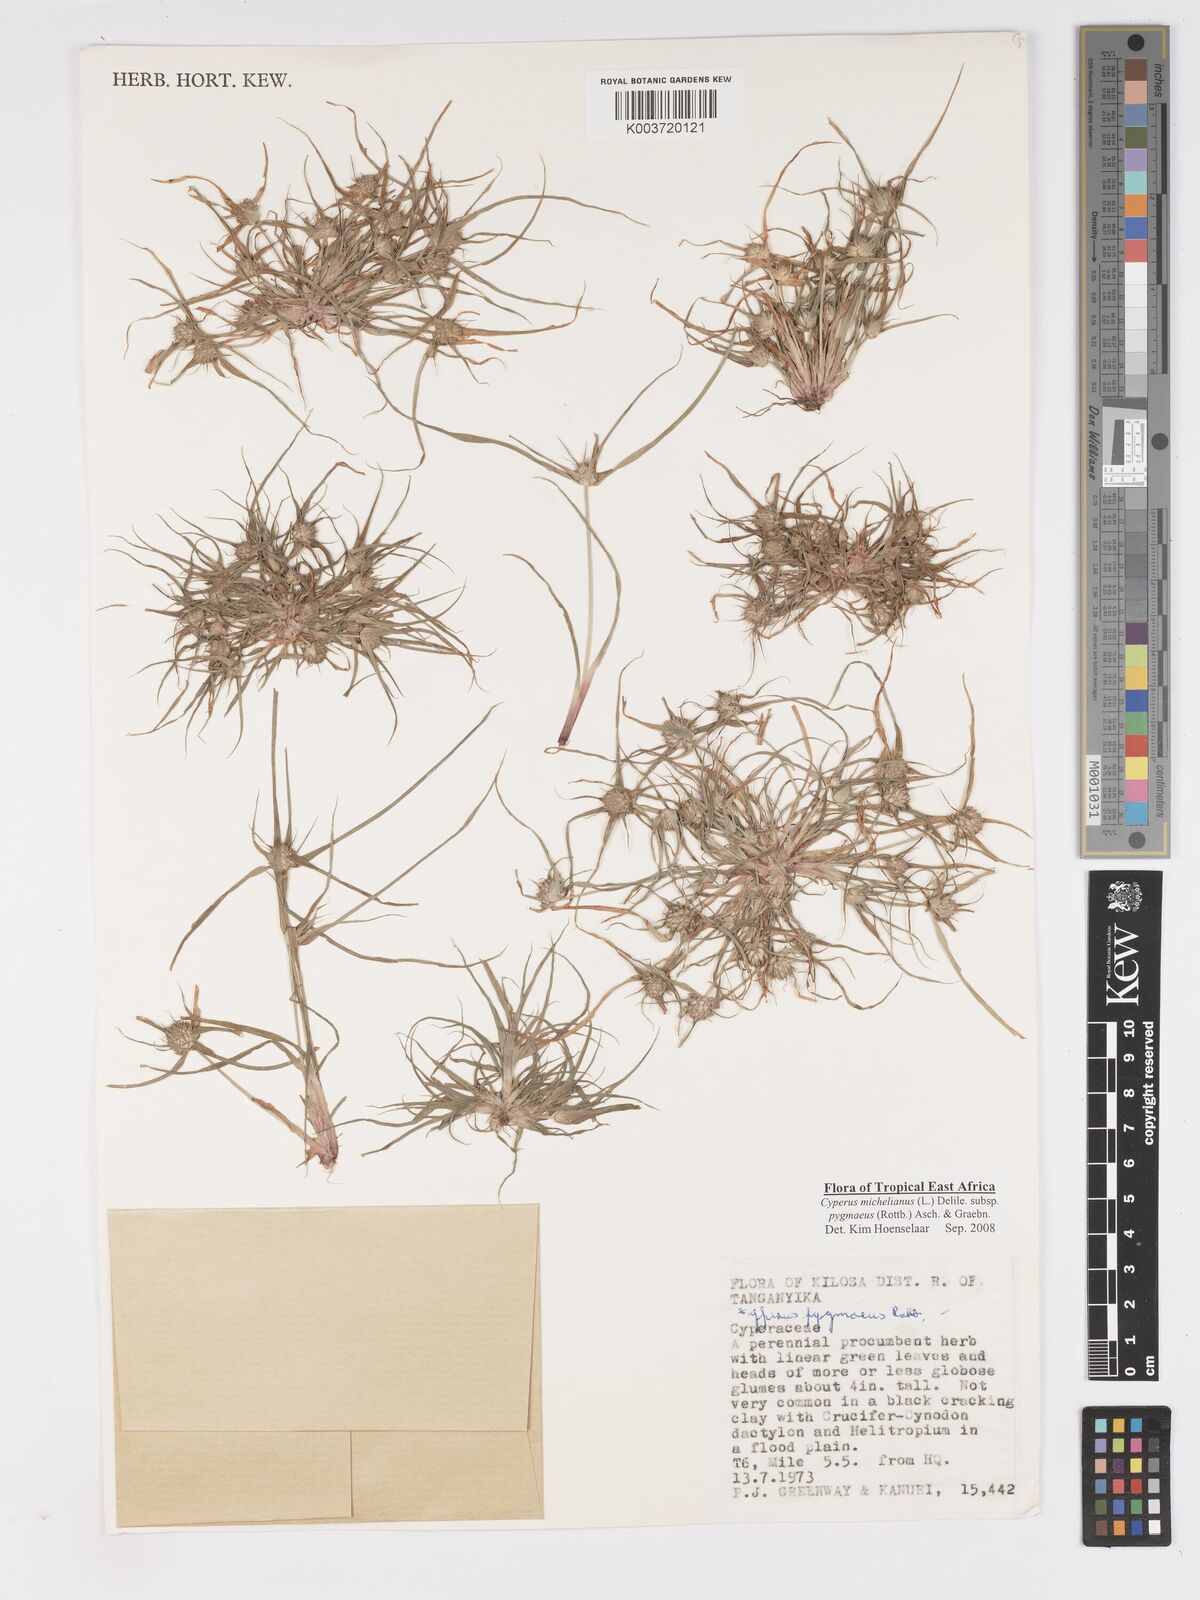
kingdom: Plantae
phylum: Tracheophyta
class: Liliopsida
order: Poales
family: Cyperaceae
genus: Cyperus
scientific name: Cyperus michelianus
